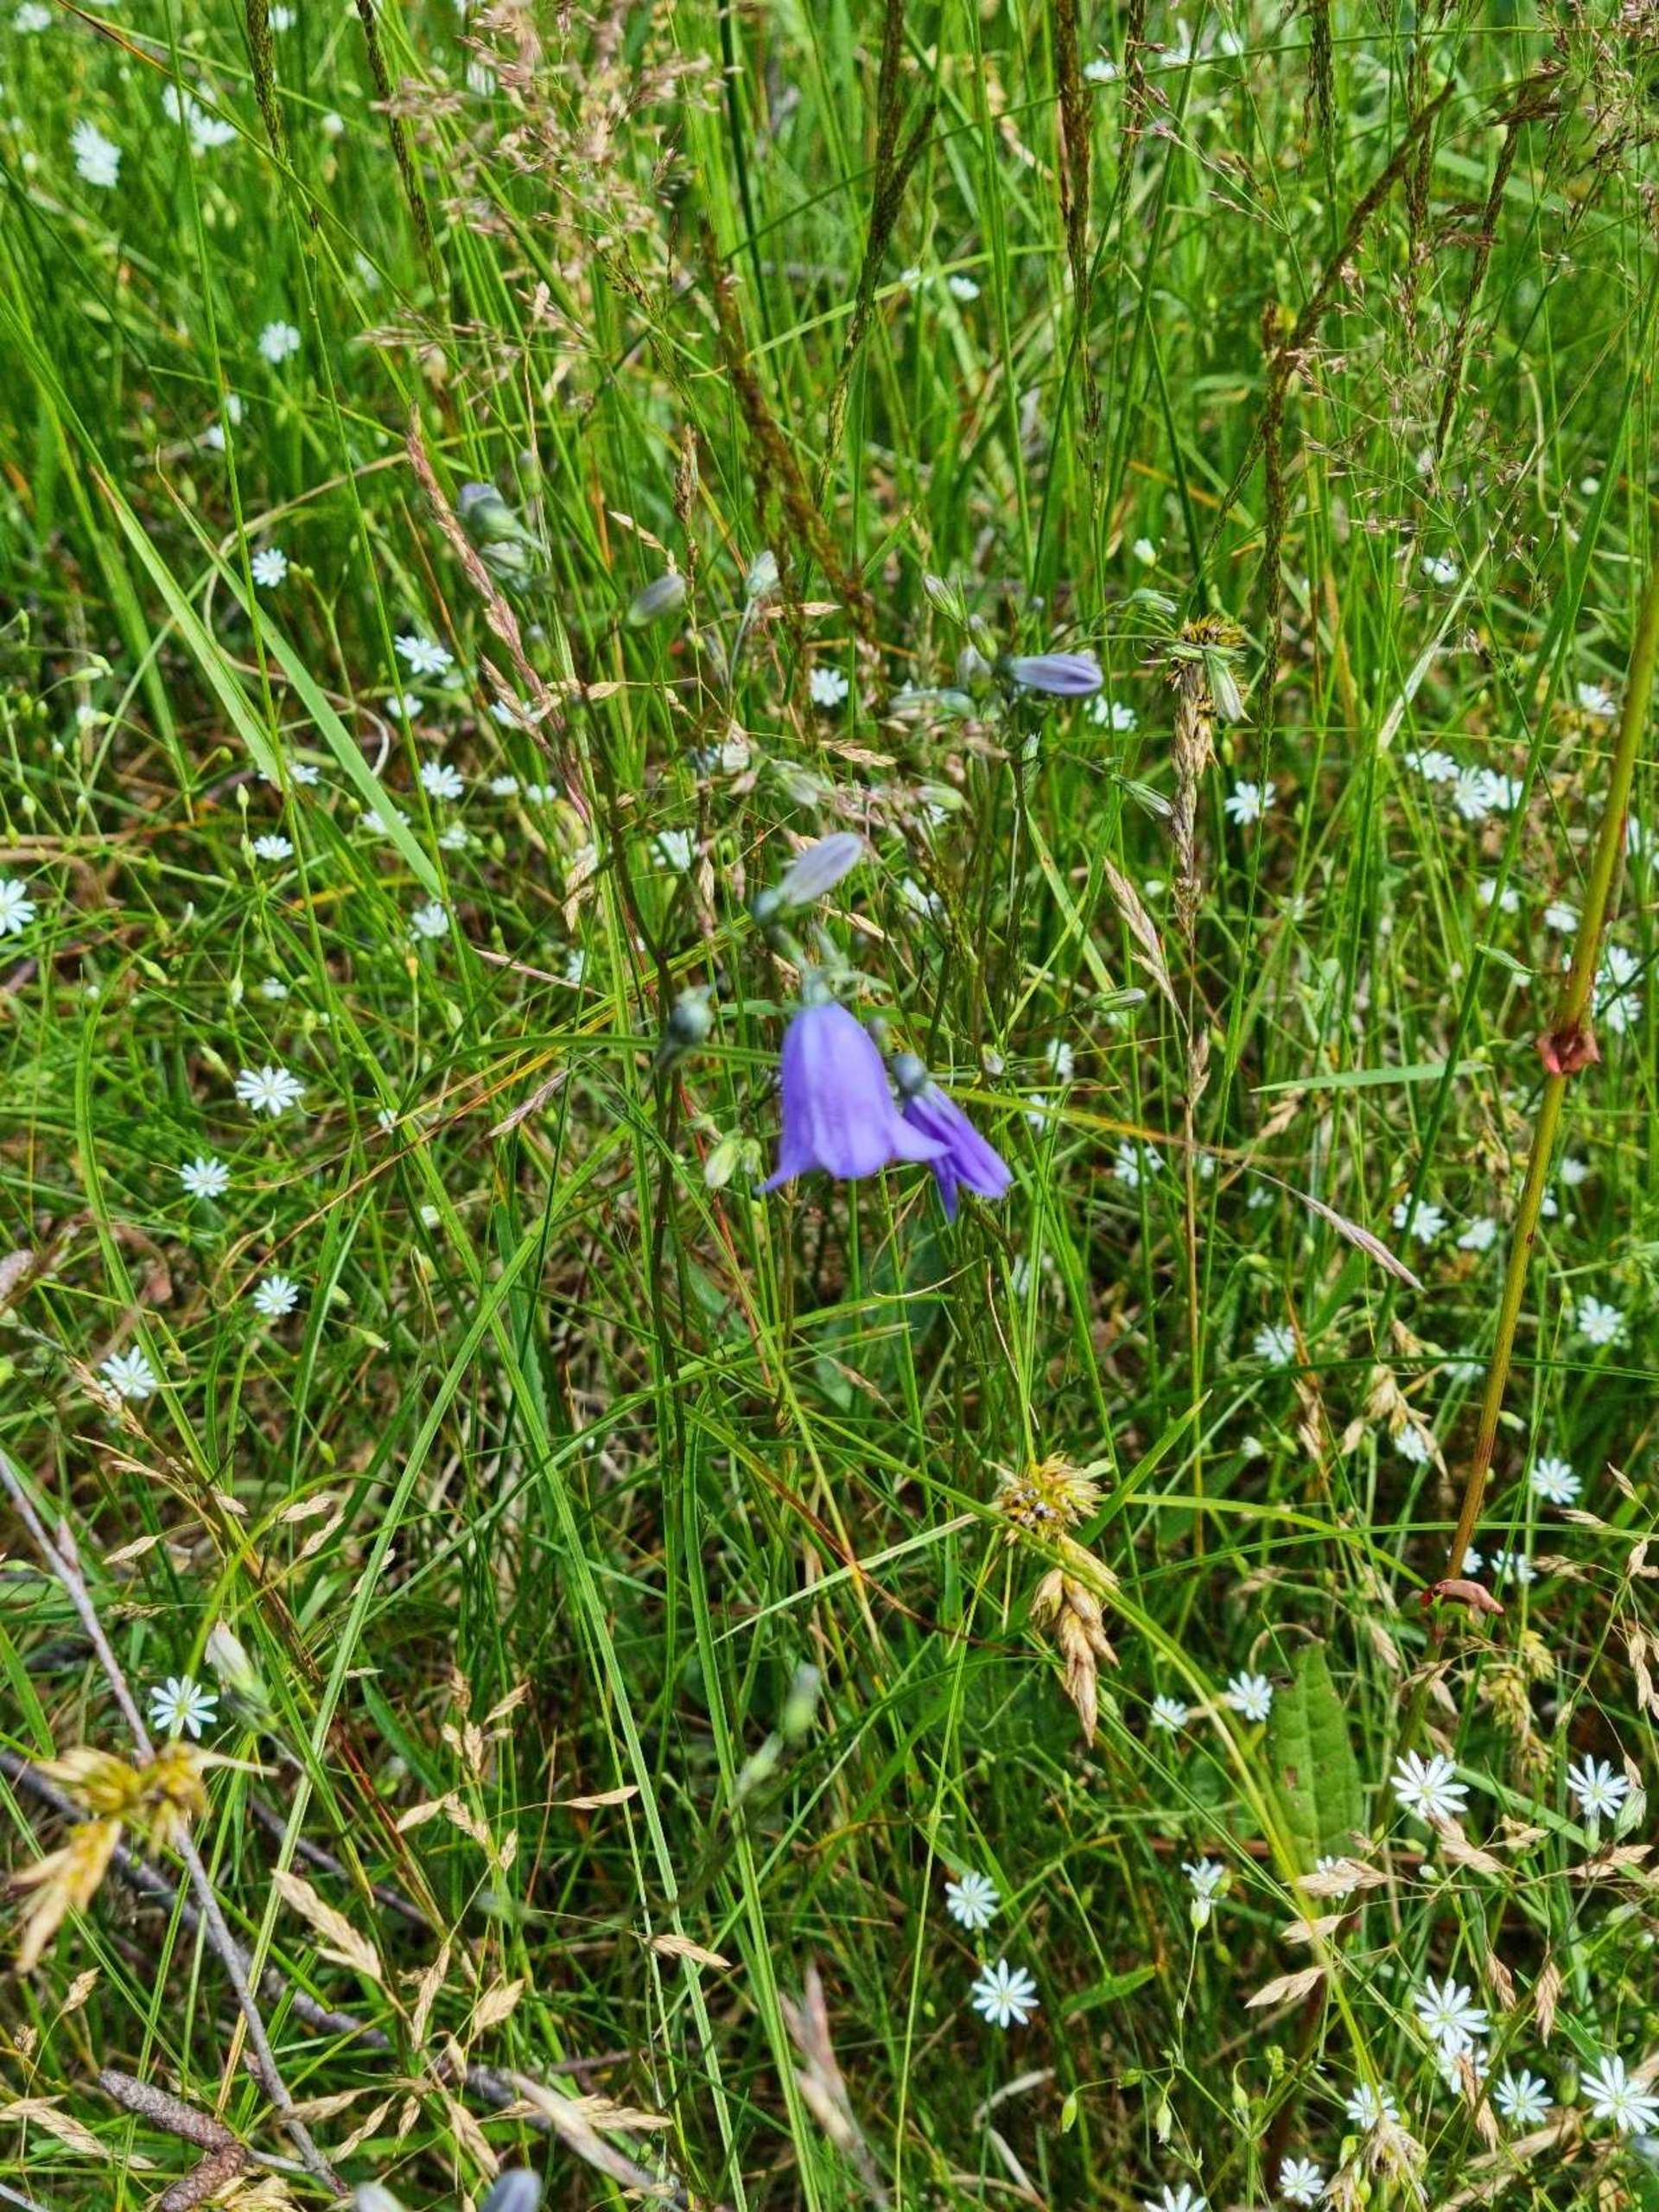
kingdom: Plantae
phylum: Tracheophyta
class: Magnoliopsida
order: Asterales
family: Campanulaceae
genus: Campanula
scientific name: Campanula rotundifolia
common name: Liden klokke
